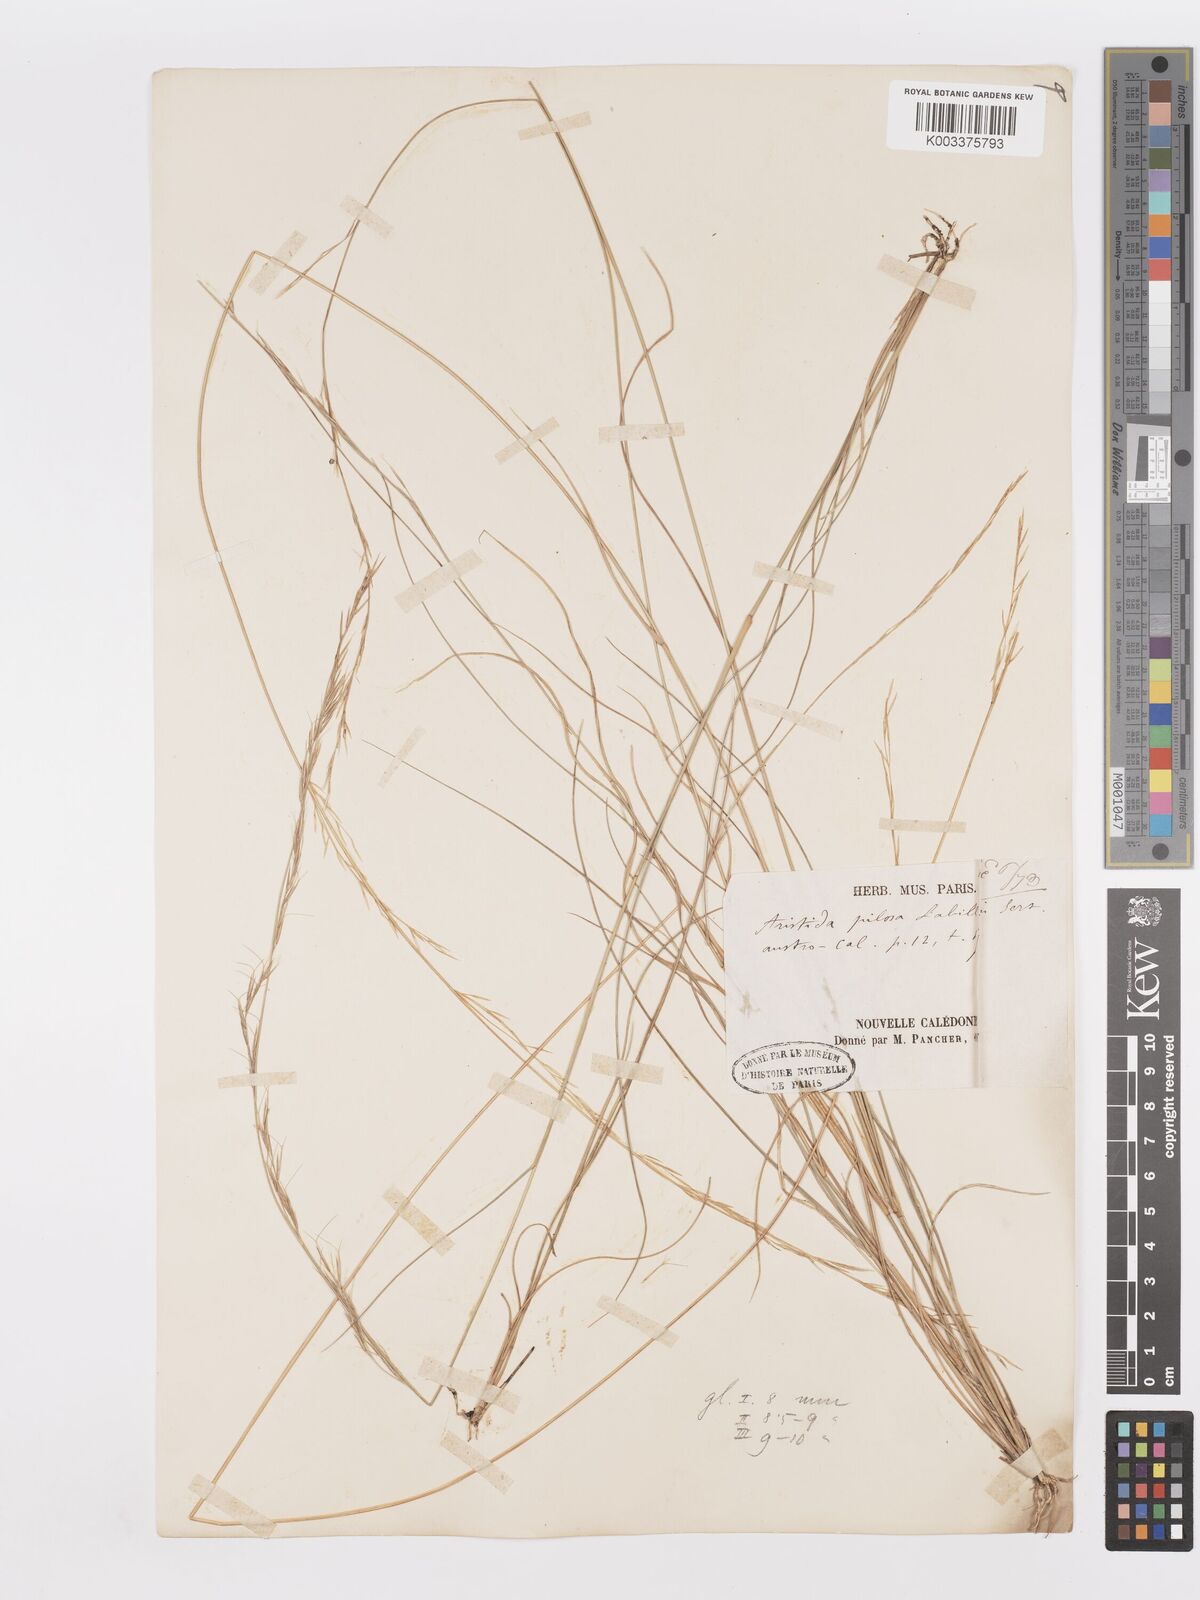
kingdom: Plantae
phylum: Tracheophyta
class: Liliopsida
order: Poales
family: Poaceae
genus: Aristida
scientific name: Aristida novae-caledoniae
